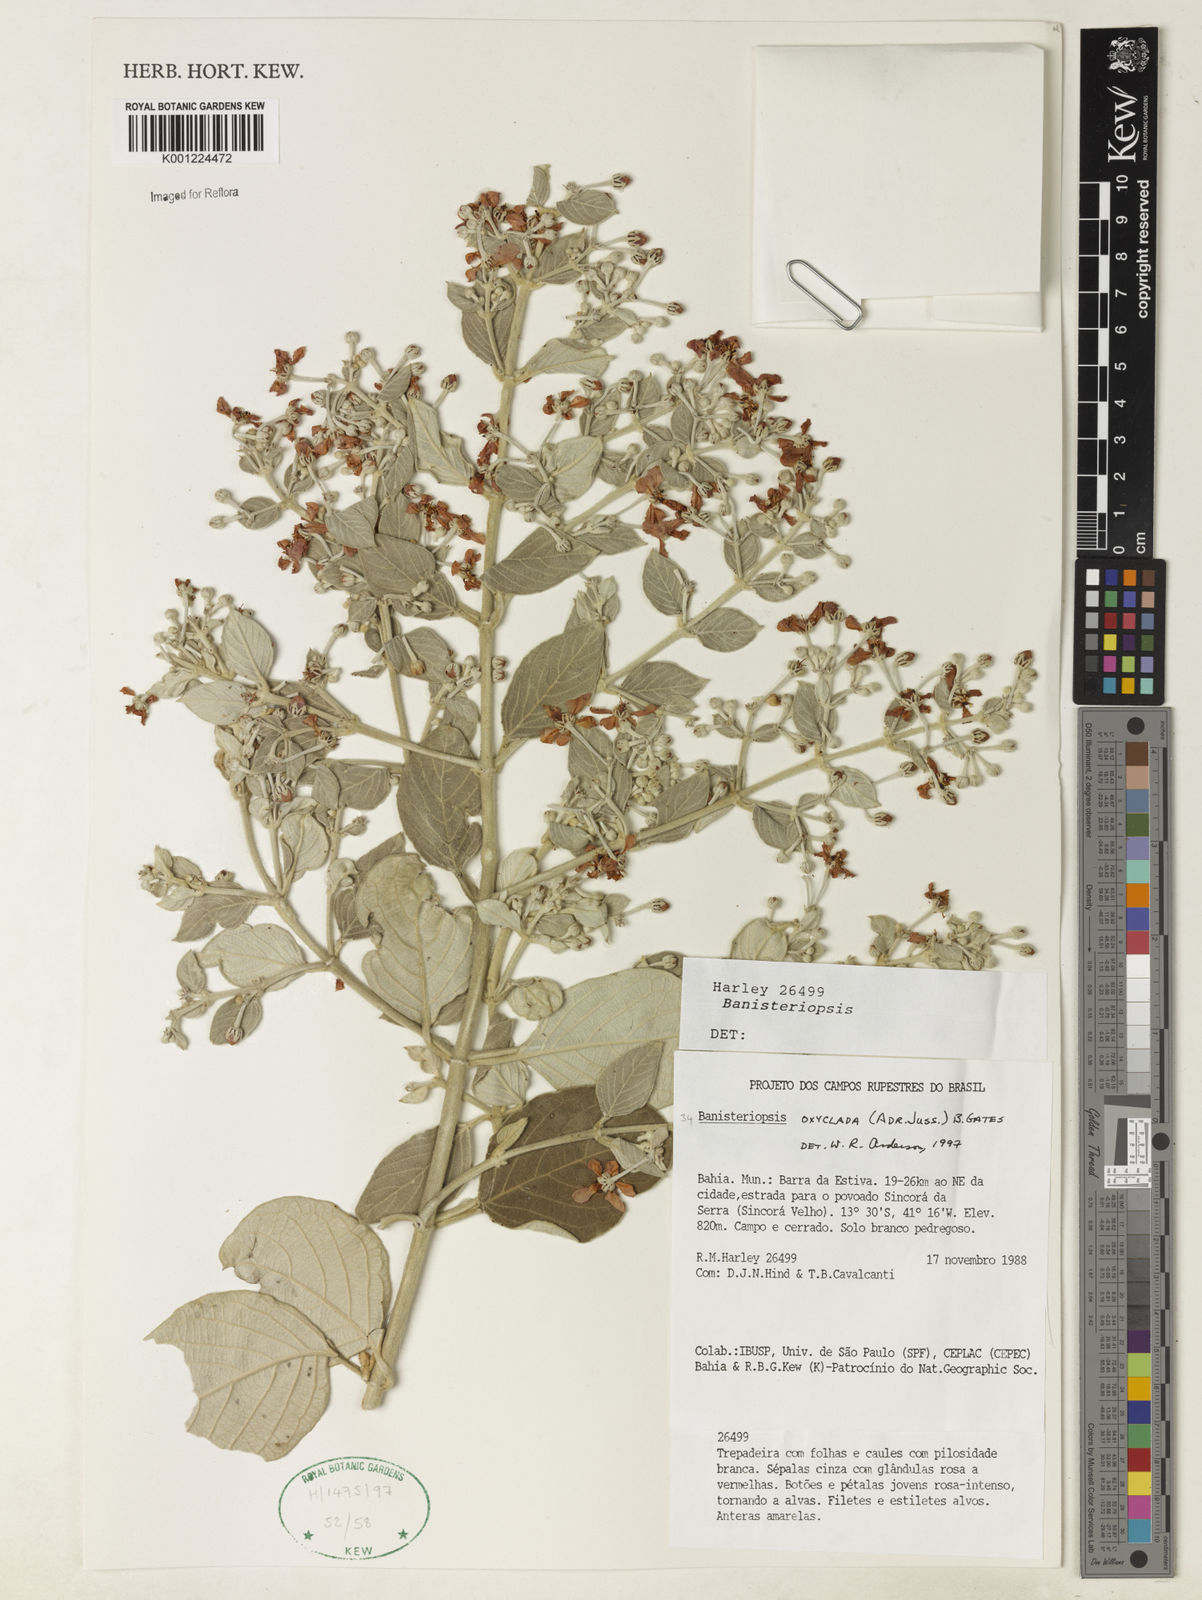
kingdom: Plantae
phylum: Tracheophyta
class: Magnoliopsida
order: Malpighiales
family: Malpighiaceae
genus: Banisteriopsis
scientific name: Banisteriopsis oxyclada
